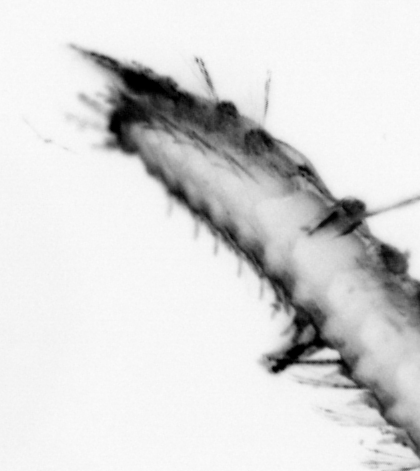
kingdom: Animalia
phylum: Annelida
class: Polychaeta
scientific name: Polychaeta
